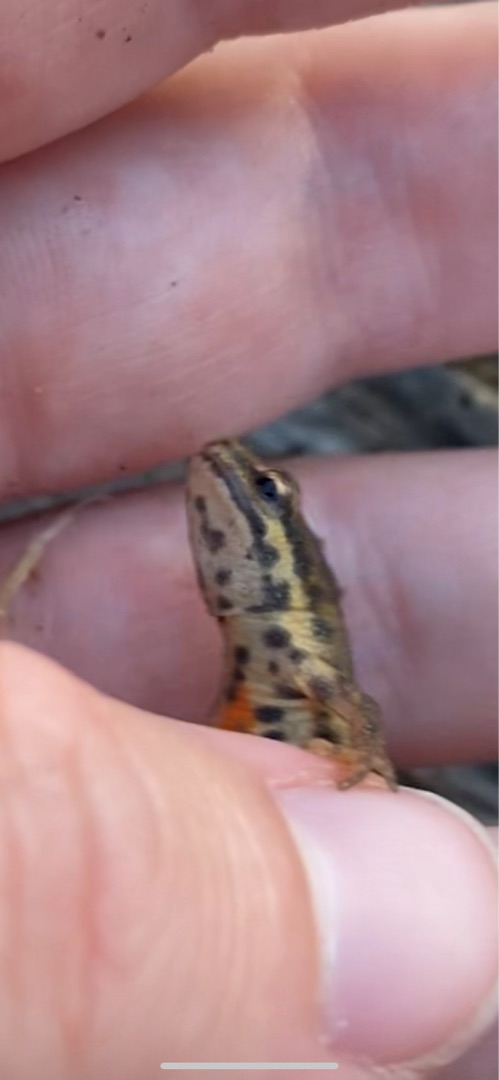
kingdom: Animalia
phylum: Chordata
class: Amphibia
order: Caudata
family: Salamandridae
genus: Lissotriton
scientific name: Lissotriton vulgaris
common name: Lille vandsalamander
